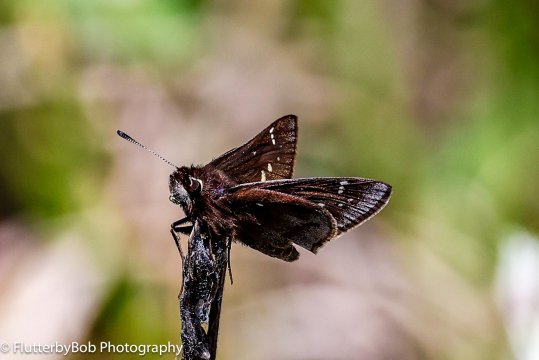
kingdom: Animalia
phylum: Arthropoda
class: Insecta
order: Lepidoptera
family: Hesperiidae
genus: Atrytonopsis
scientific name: Atrytonopsis hianna
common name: Dusted Skipper
